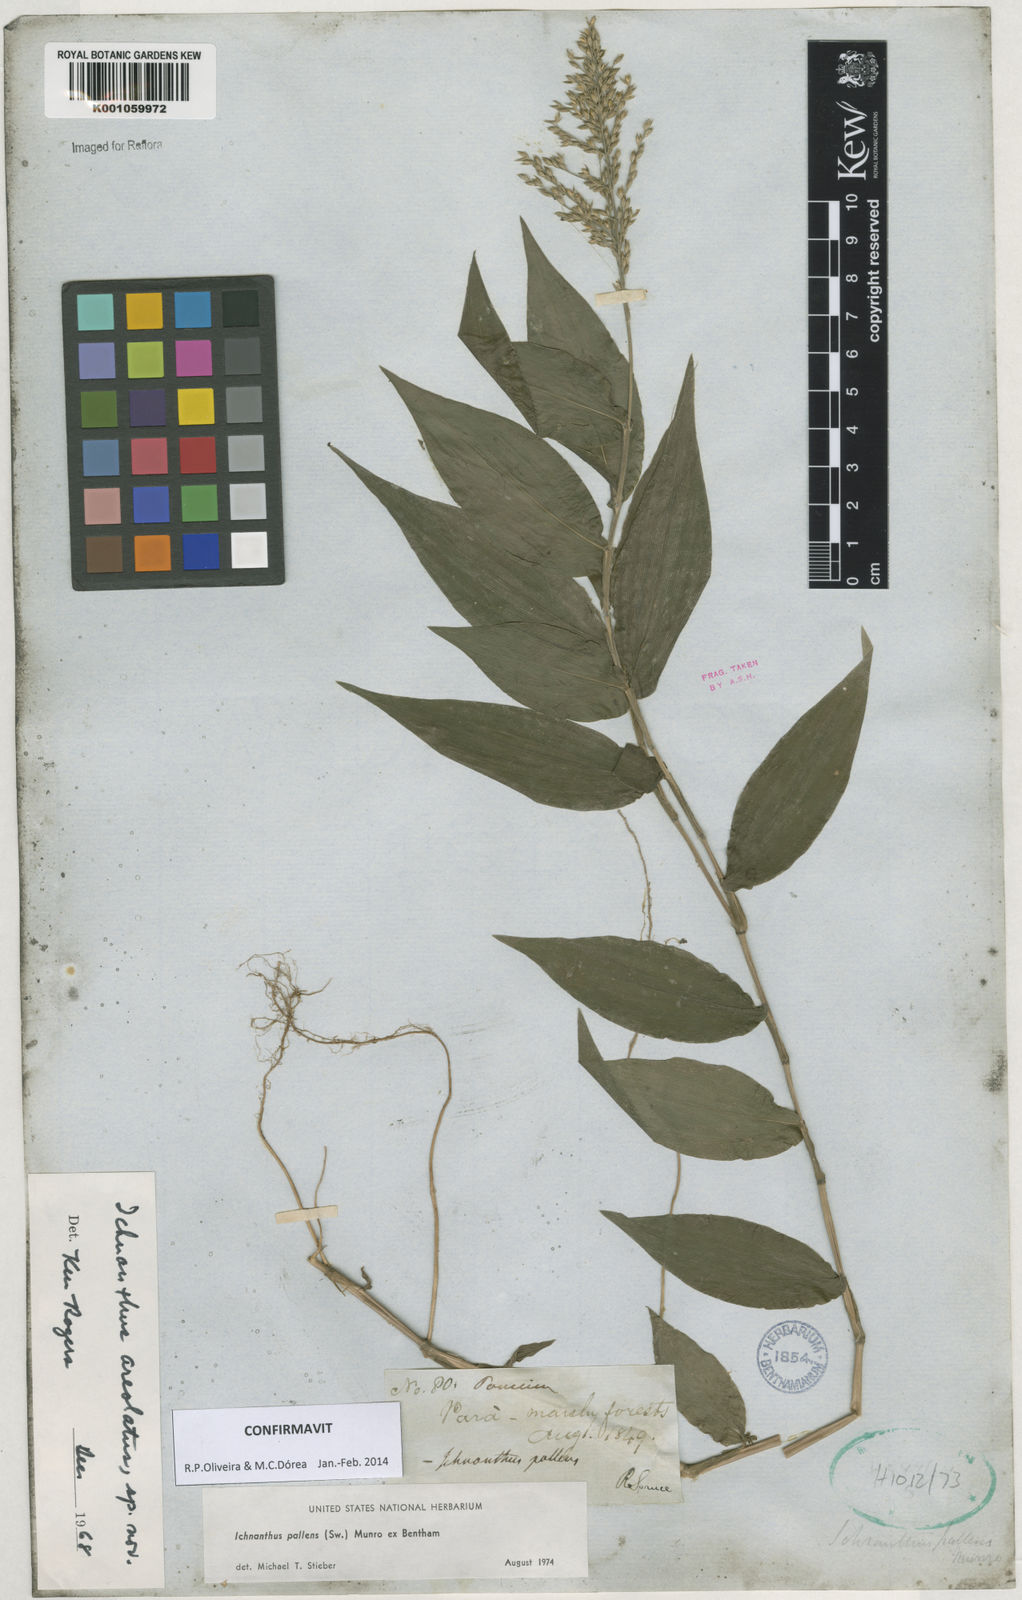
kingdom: Plantae
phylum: Tracheophyta
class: Liliopsida
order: Poales
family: Poaceae
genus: Ichnanthus
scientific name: Ichnanthus pallens
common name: Water grass
